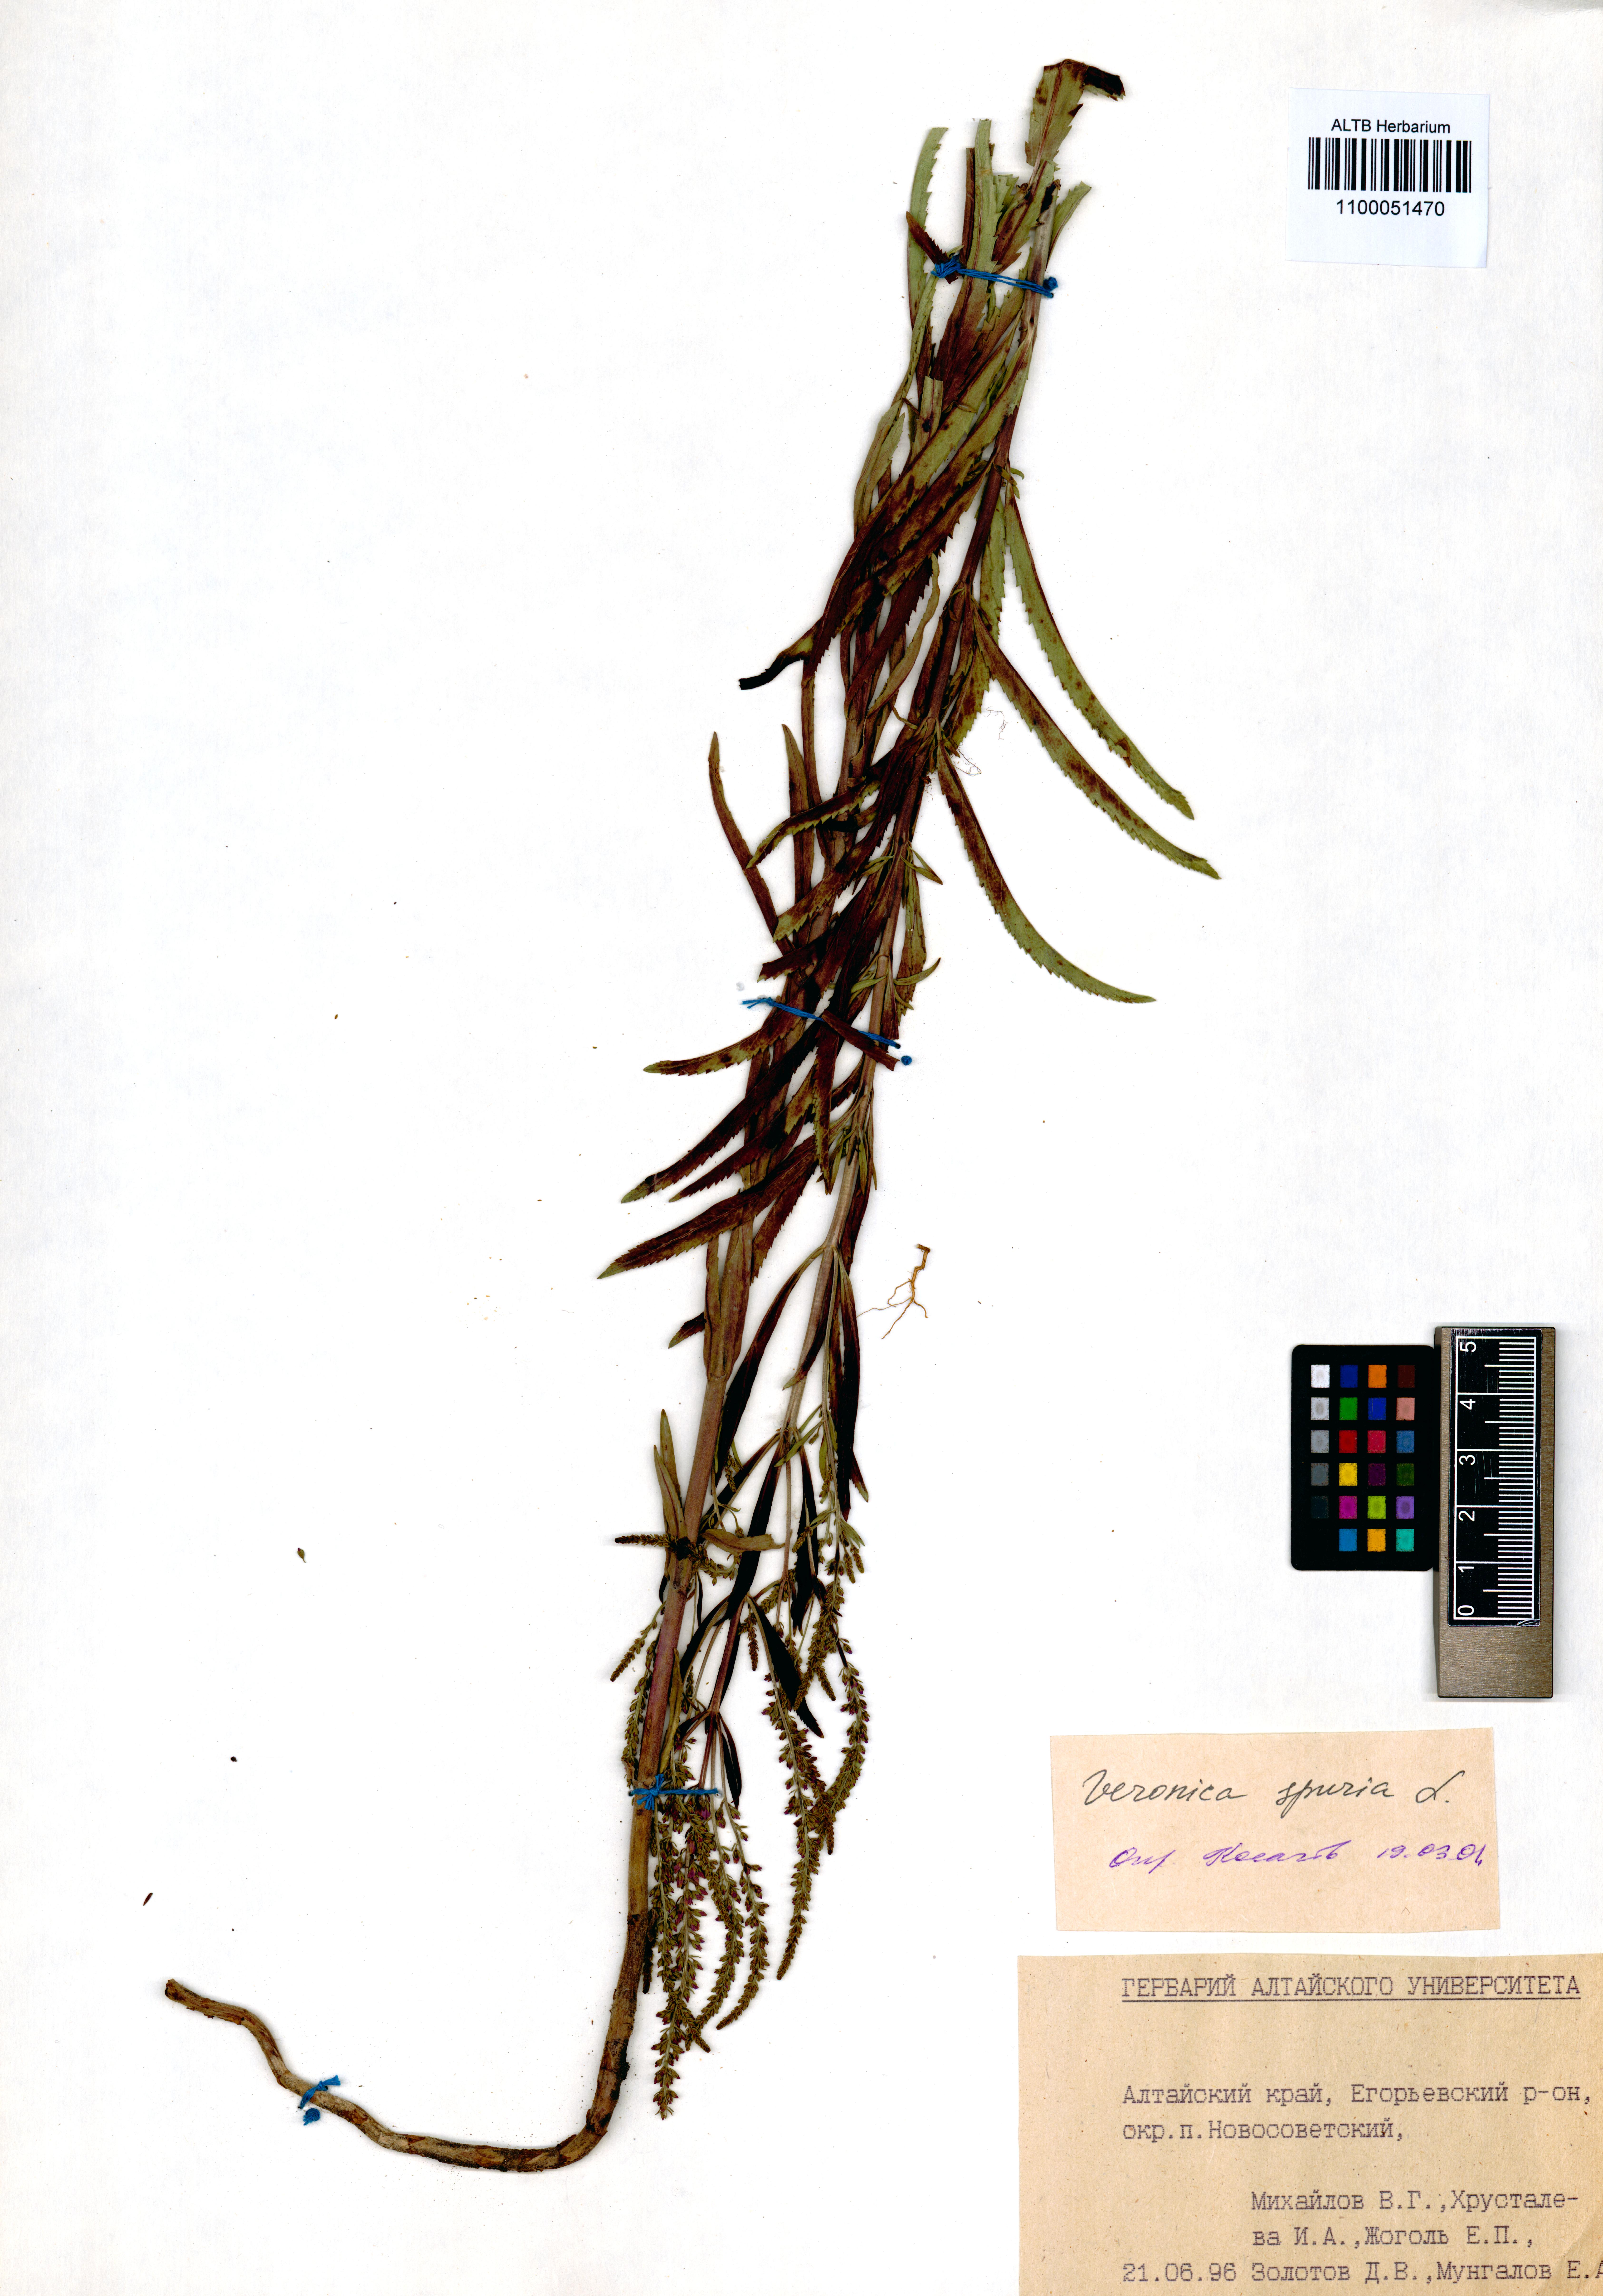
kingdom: Plantae
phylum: Tracheophyta
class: Magnoliopsida
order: Lamiales
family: Plantaginaceae
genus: Veronica
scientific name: Veronica spuria
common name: Bastard speedwell
